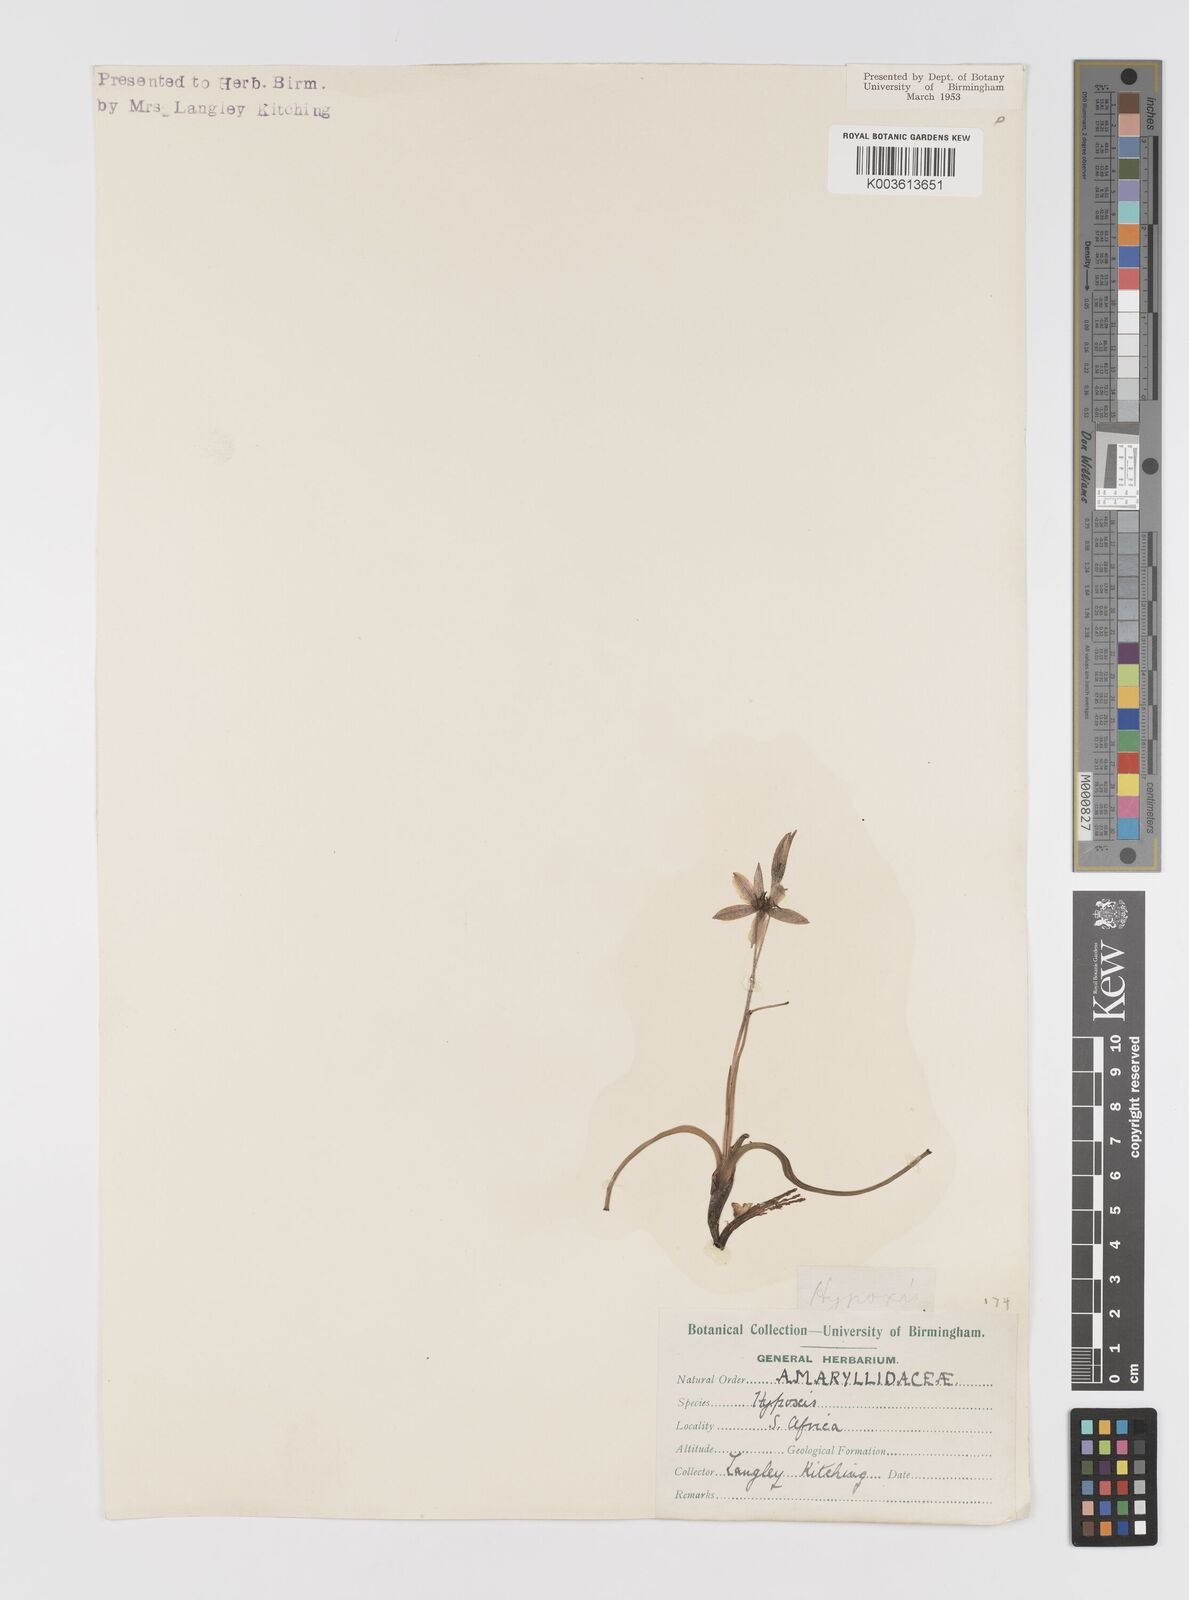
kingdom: Plantae
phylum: Tracheophyta
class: Liliopsida
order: Asparagales
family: Hypoxidaceae
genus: Pauridia
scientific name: Pauridia
